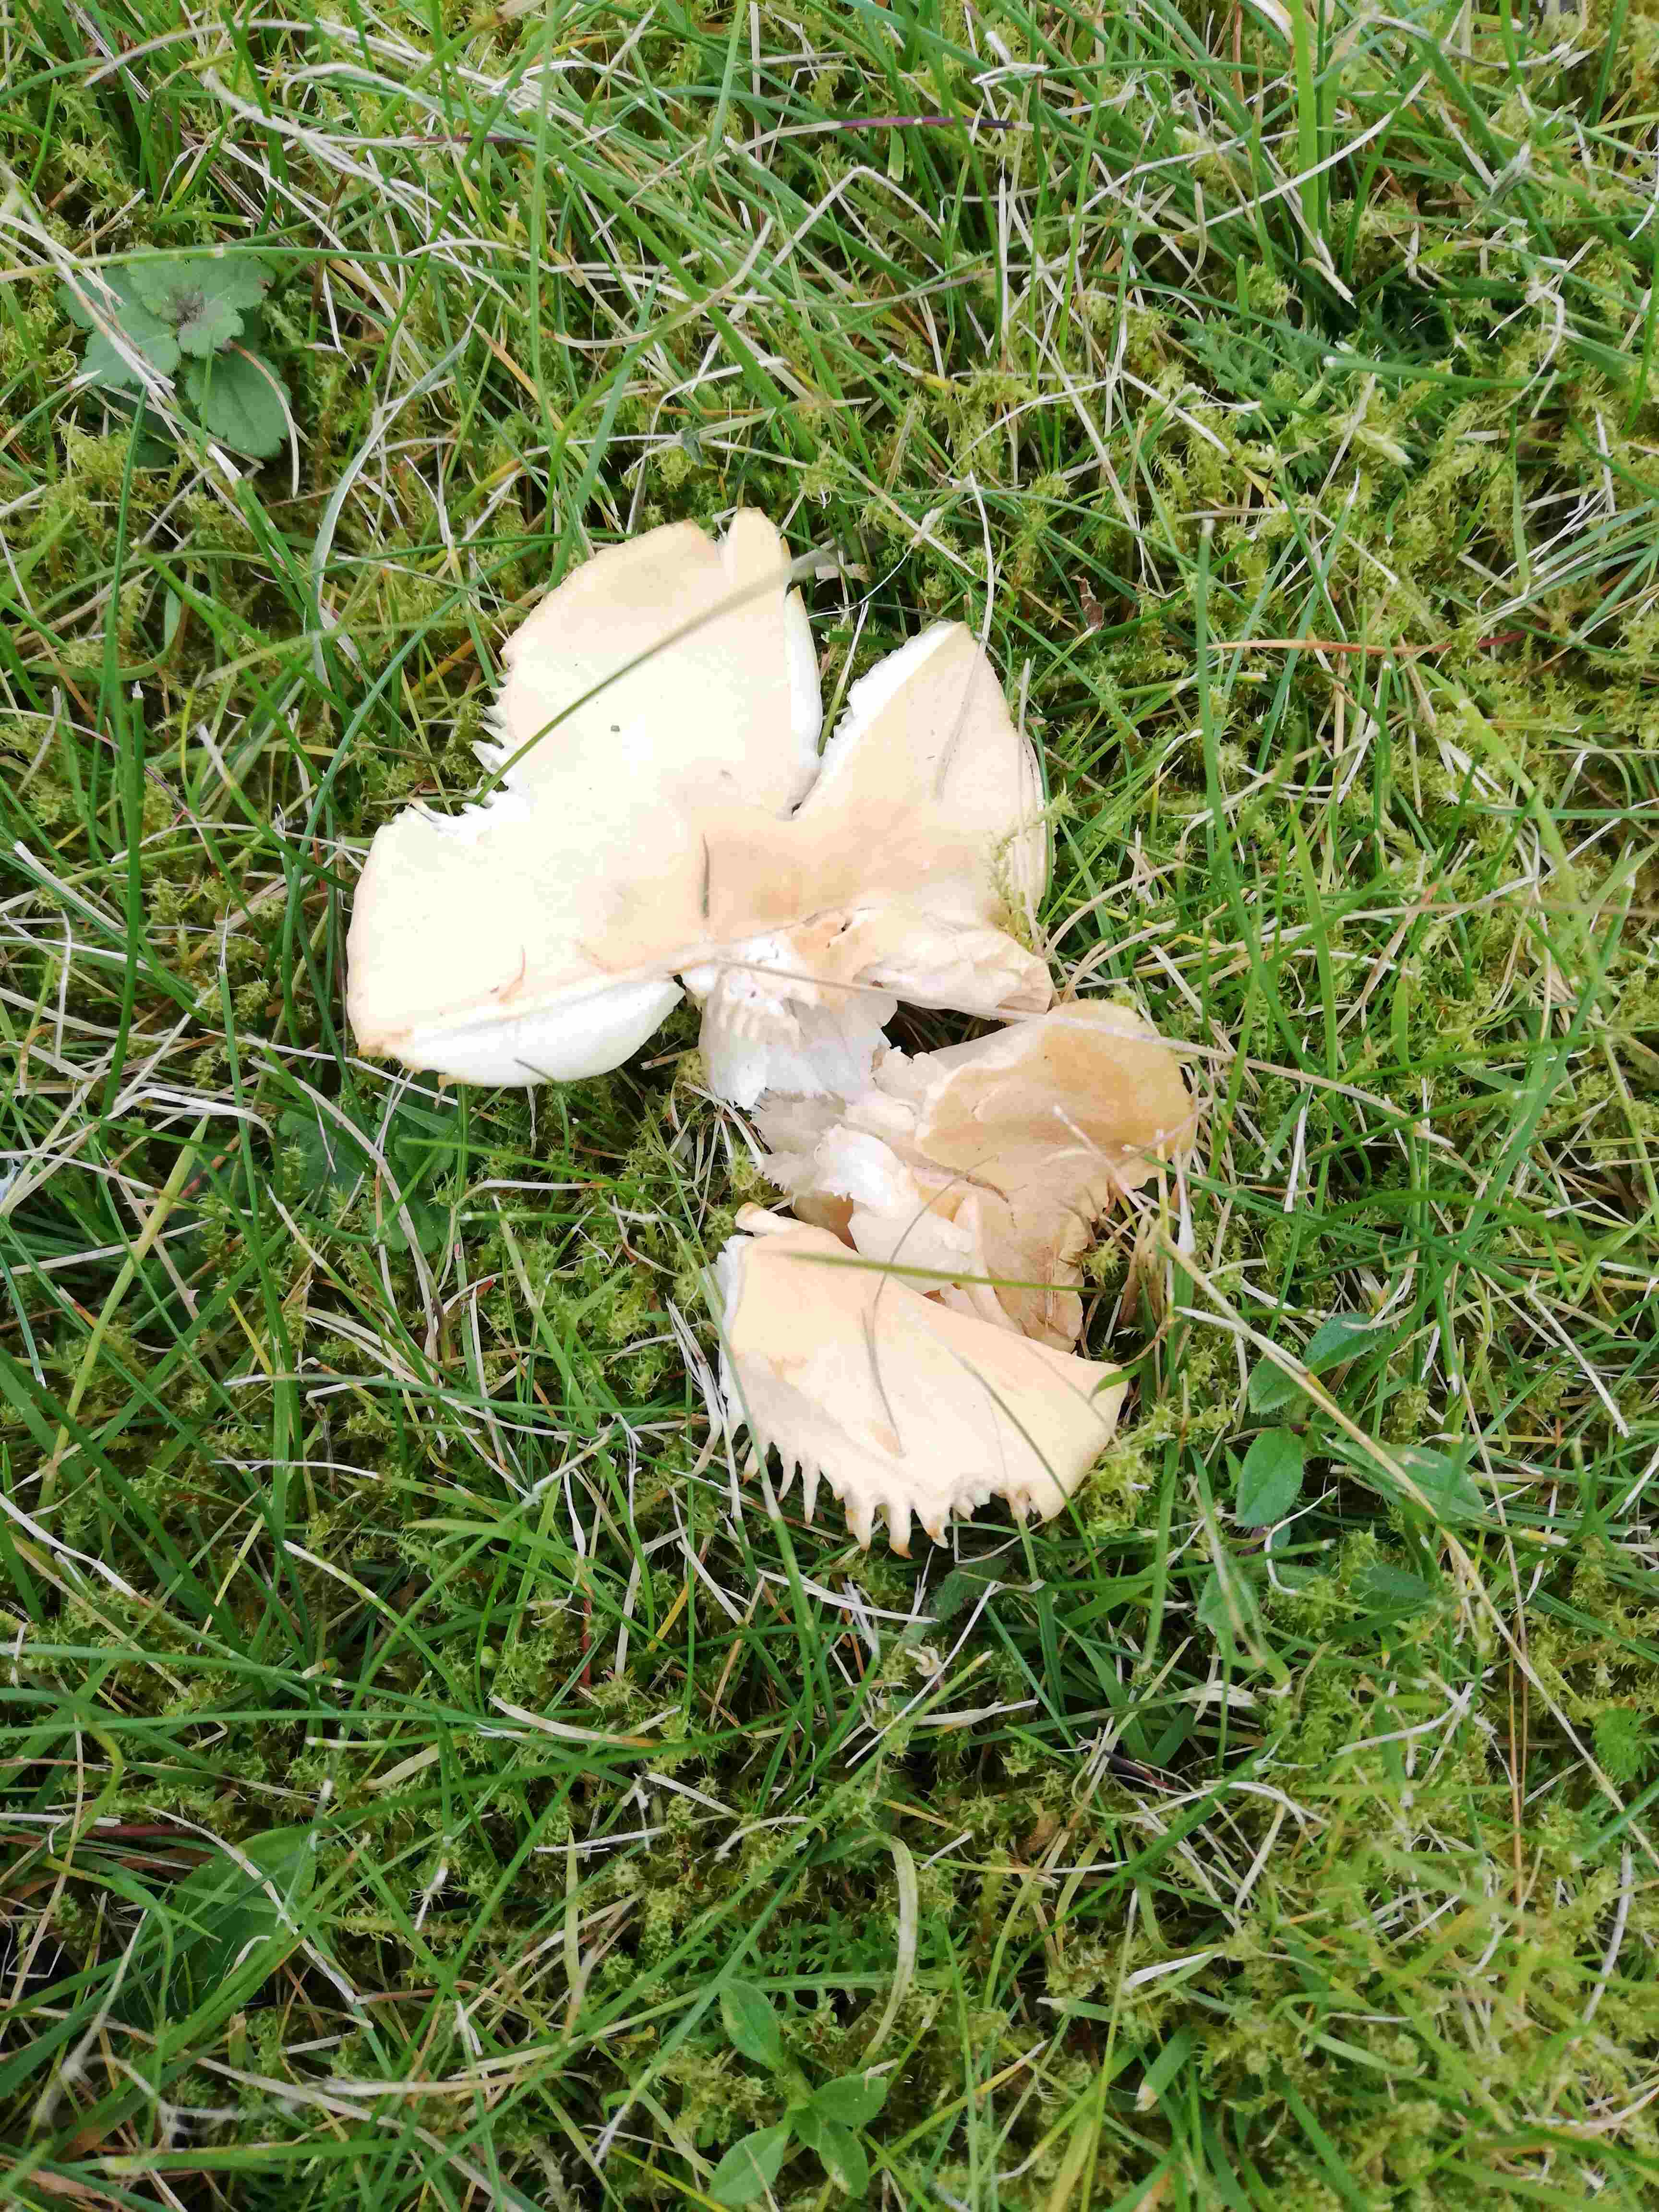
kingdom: Fungi
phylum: Basidiomycota
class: Agaricomycetes
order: Agaricales
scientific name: Agaricales
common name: champignonordenen
